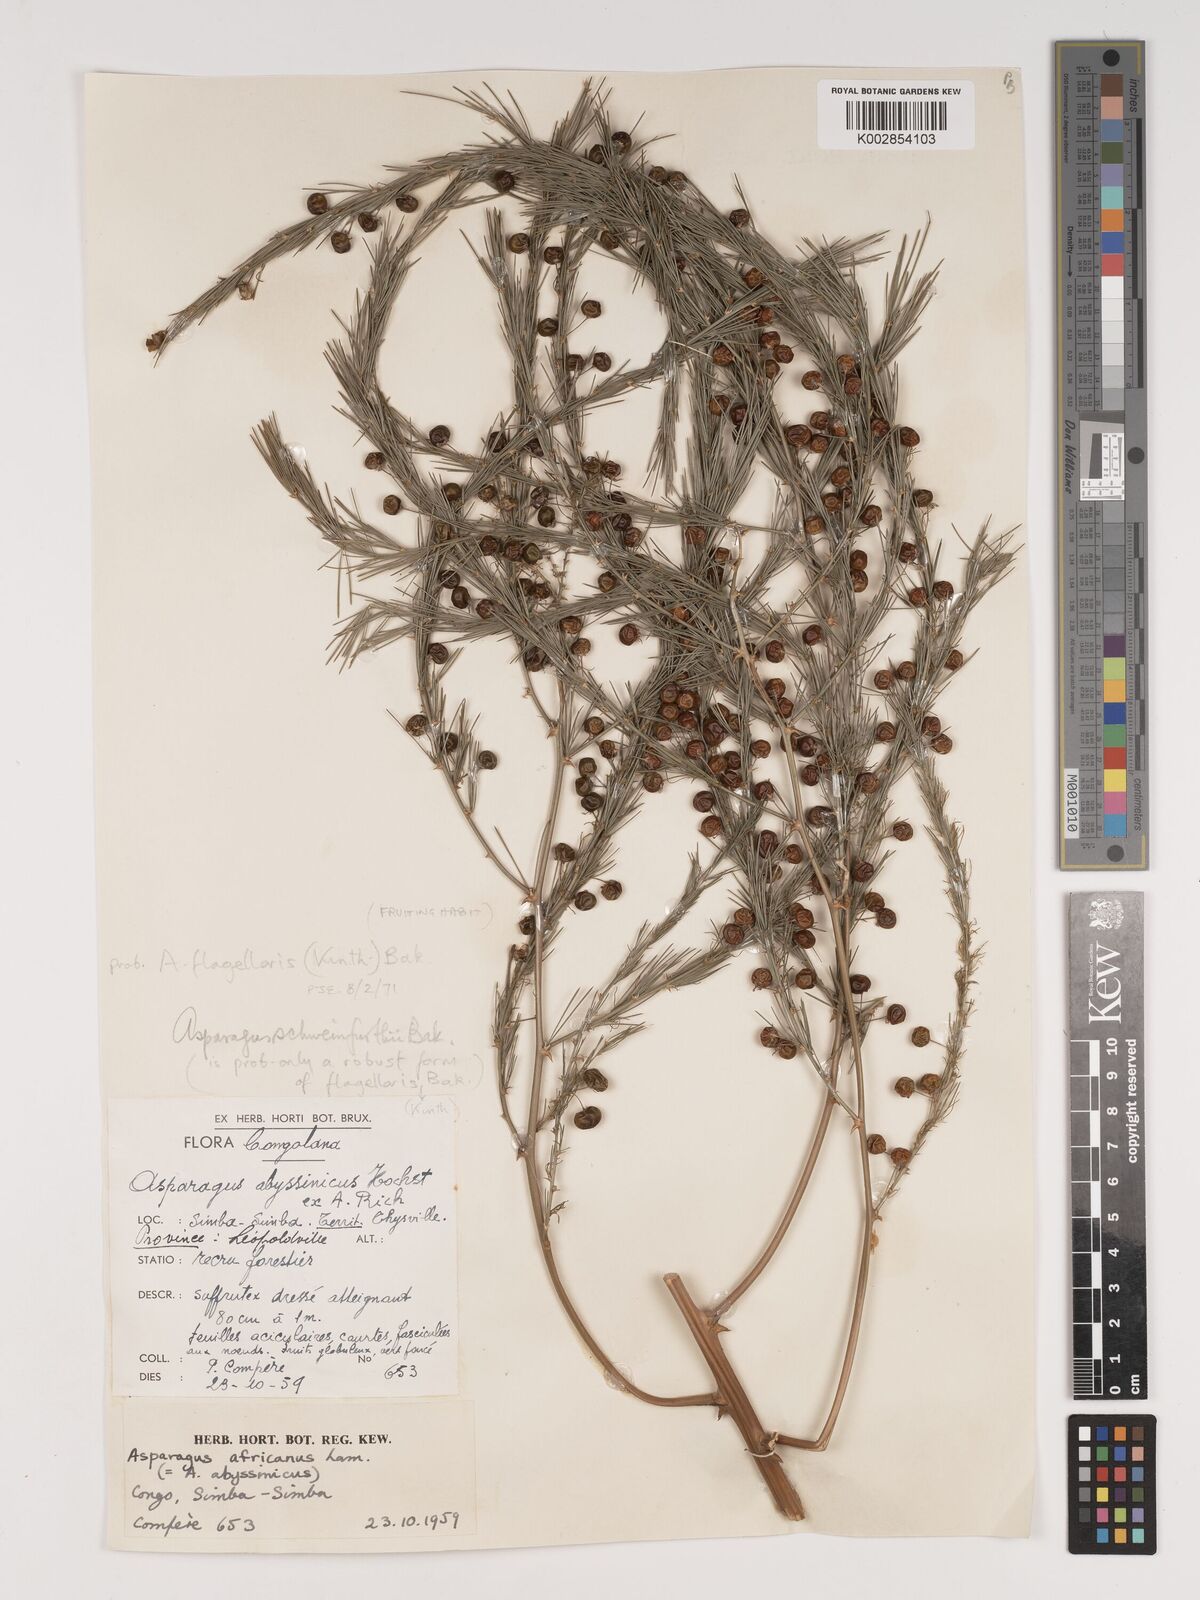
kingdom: Plantae
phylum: Tracheophyta
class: Liliopsida
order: Asparagales
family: Asparagaceae
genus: Asparagus
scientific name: Asparagus flagellaris
